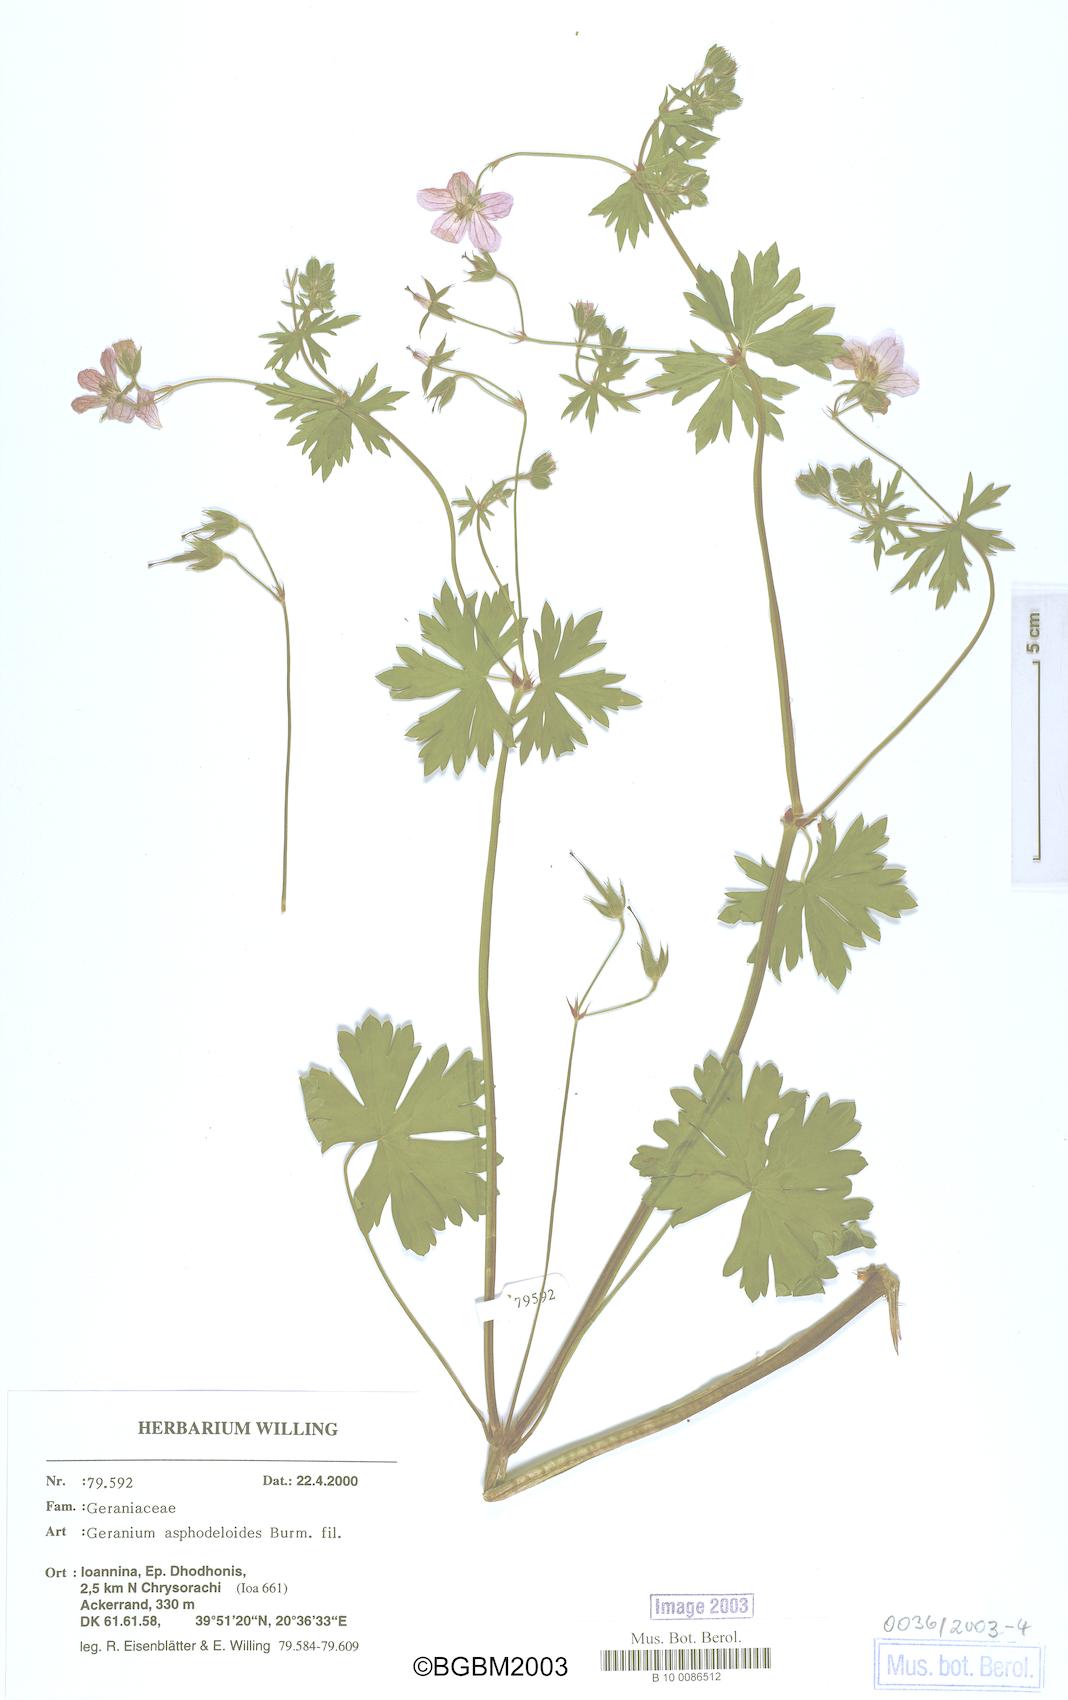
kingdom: Plantae
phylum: Tracheophyta
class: Magnoliopsida
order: Geraniales
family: Geraniaceae
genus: Geranium
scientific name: Geranium asphodeloides
